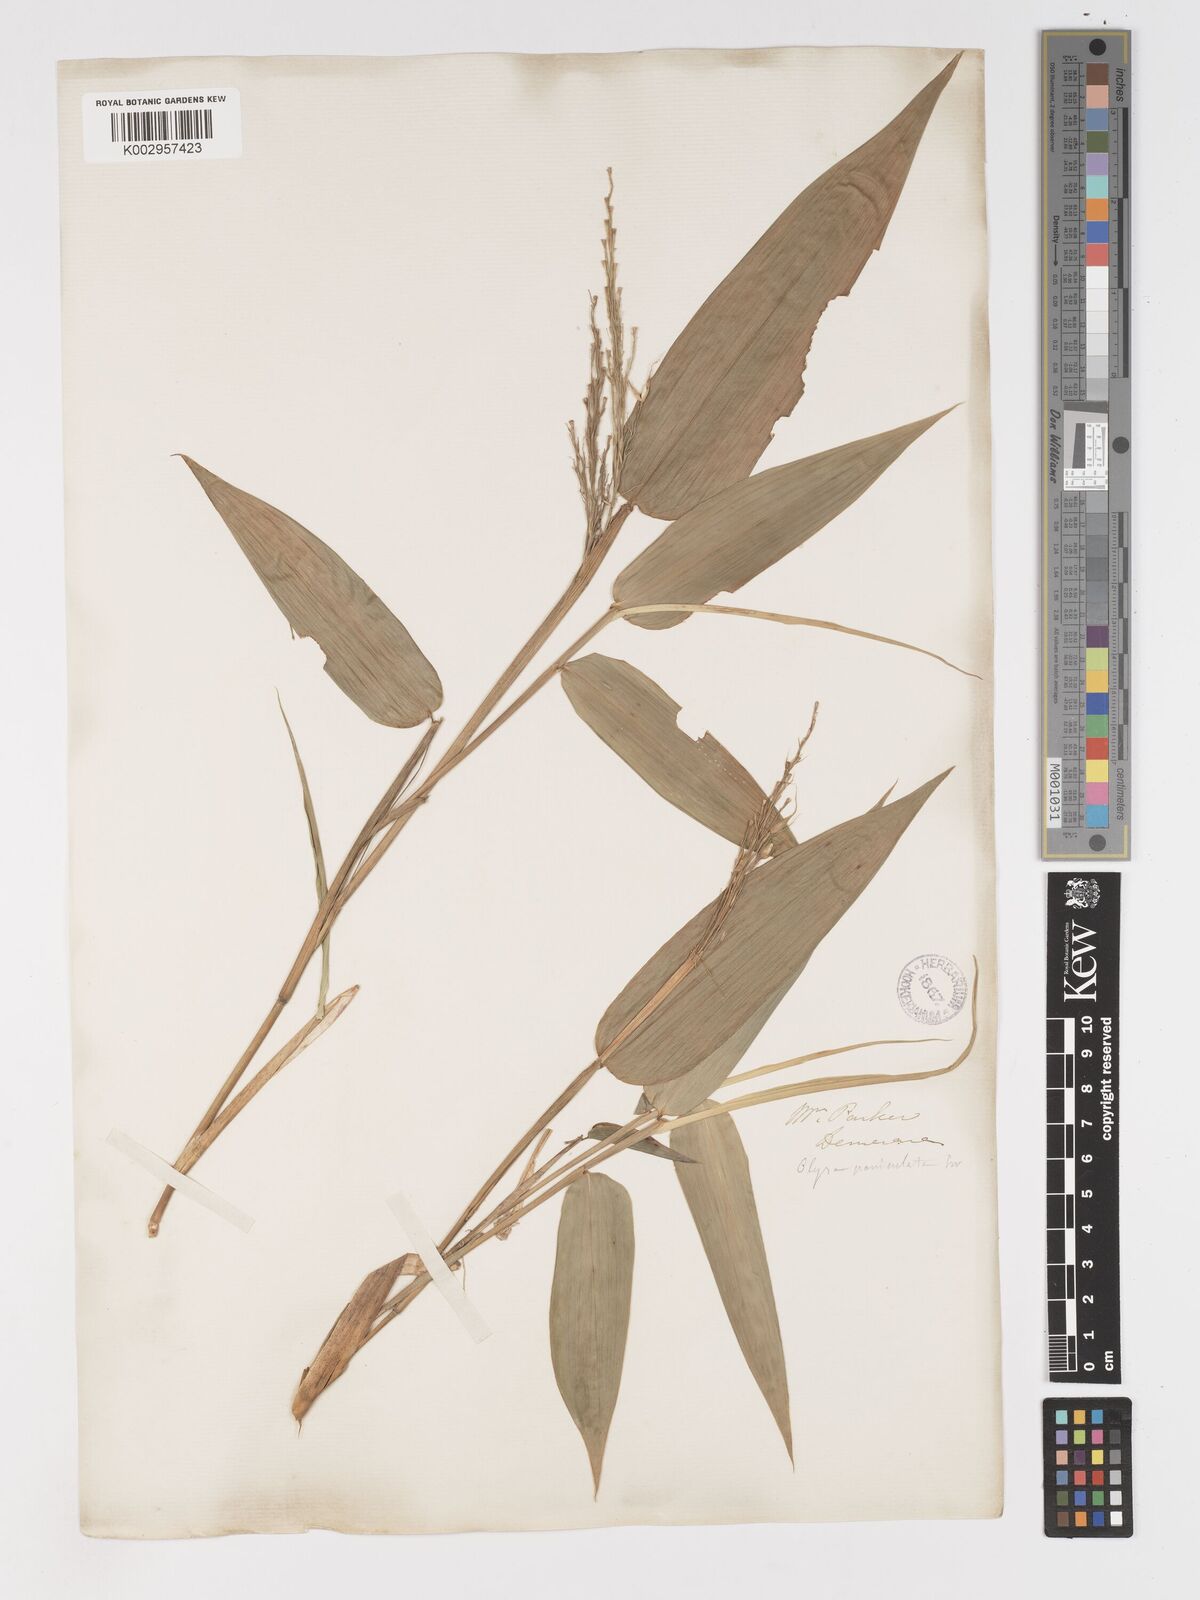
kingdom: Plantae
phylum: Tracheophyta
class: Liliopsida
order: Poales
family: Poaceae
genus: Olyra
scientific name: Olyra latifolia
